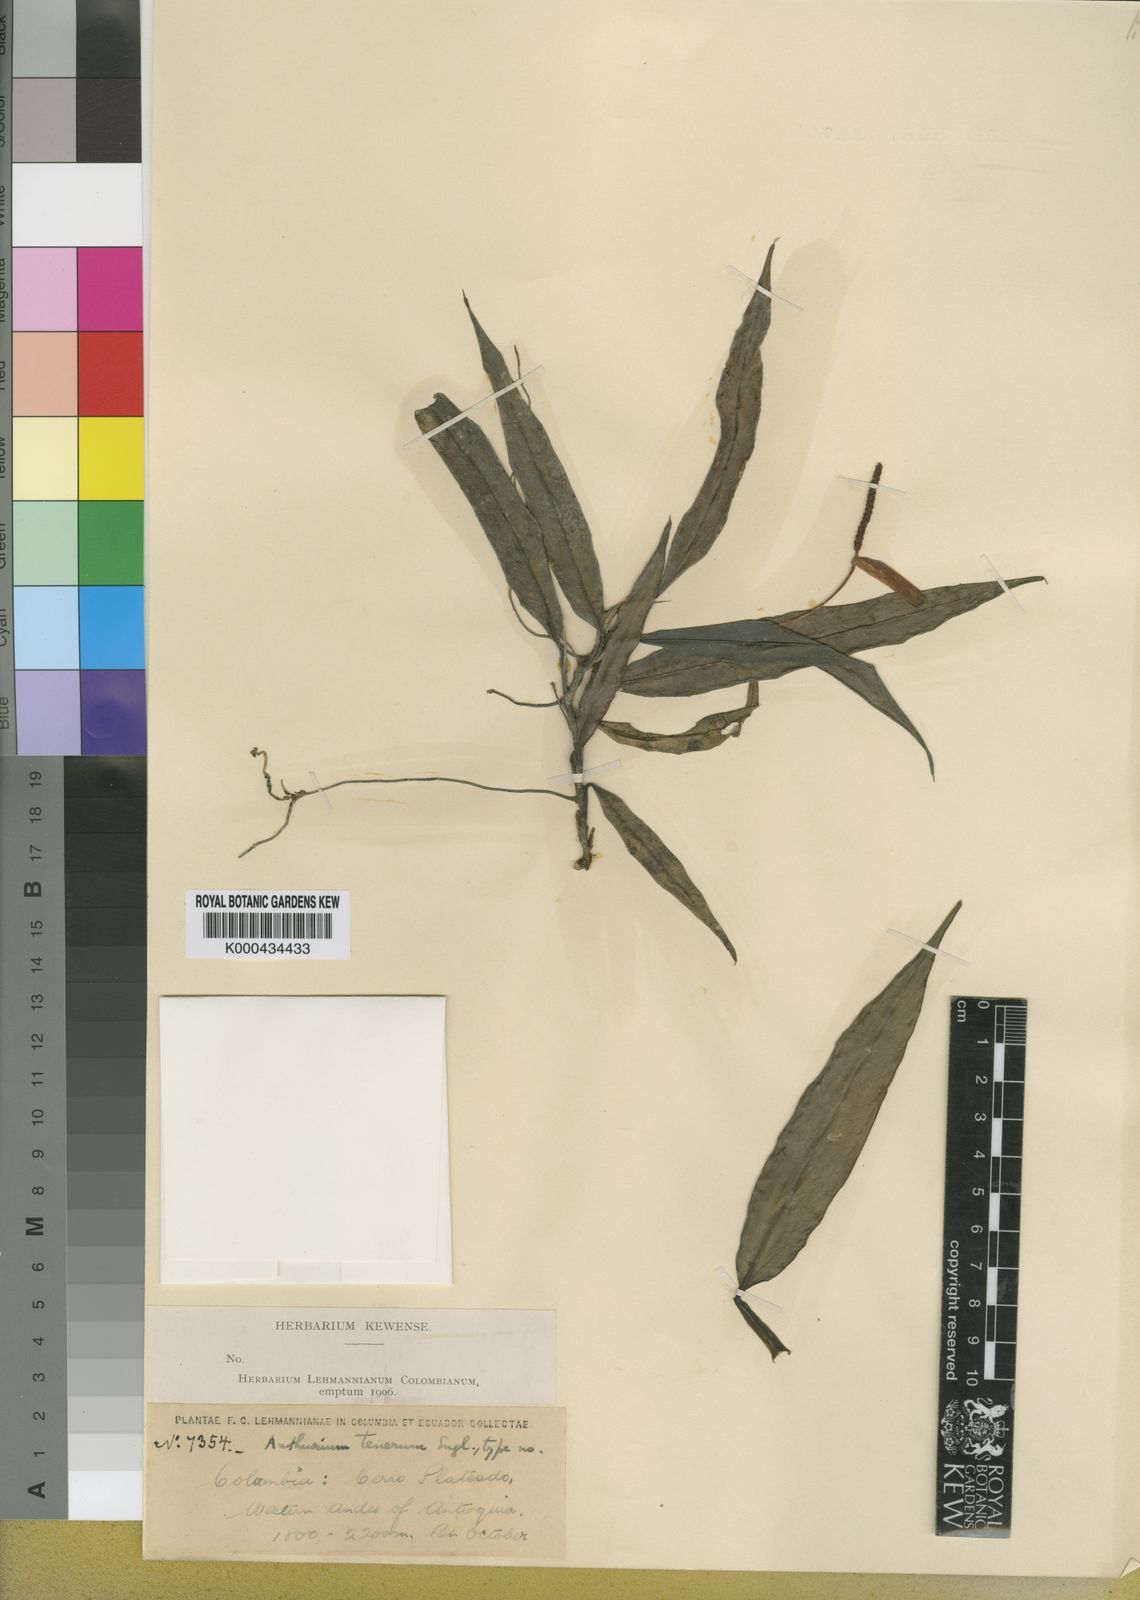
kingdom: Plantae
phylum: Tracheophyta
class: Liliopsida
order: Alismatales
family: Araceae
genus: Anthurium
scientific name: Anthurium tenerum
